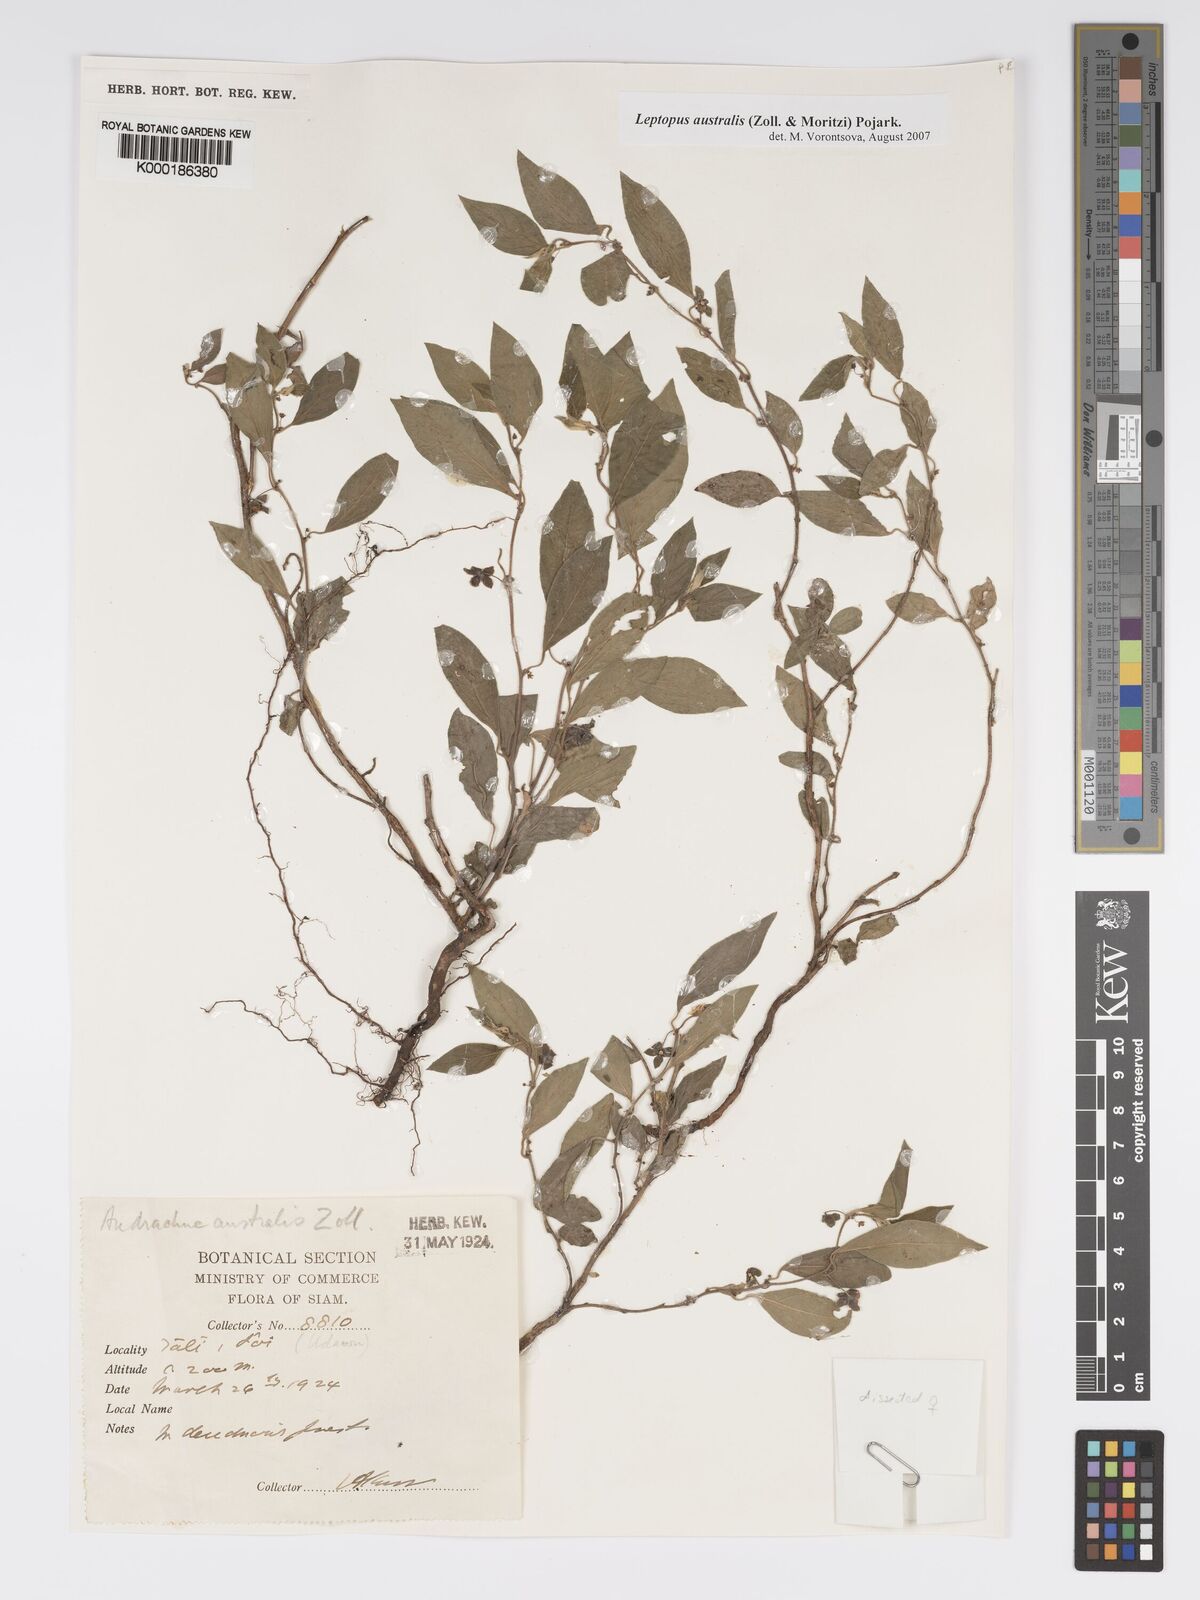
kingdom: Plantae
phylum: Tracheophyta
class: Magnoliopsida
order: Malpighiales
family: Phyllanthaceae
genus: Andrachne
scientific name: Andrachne
